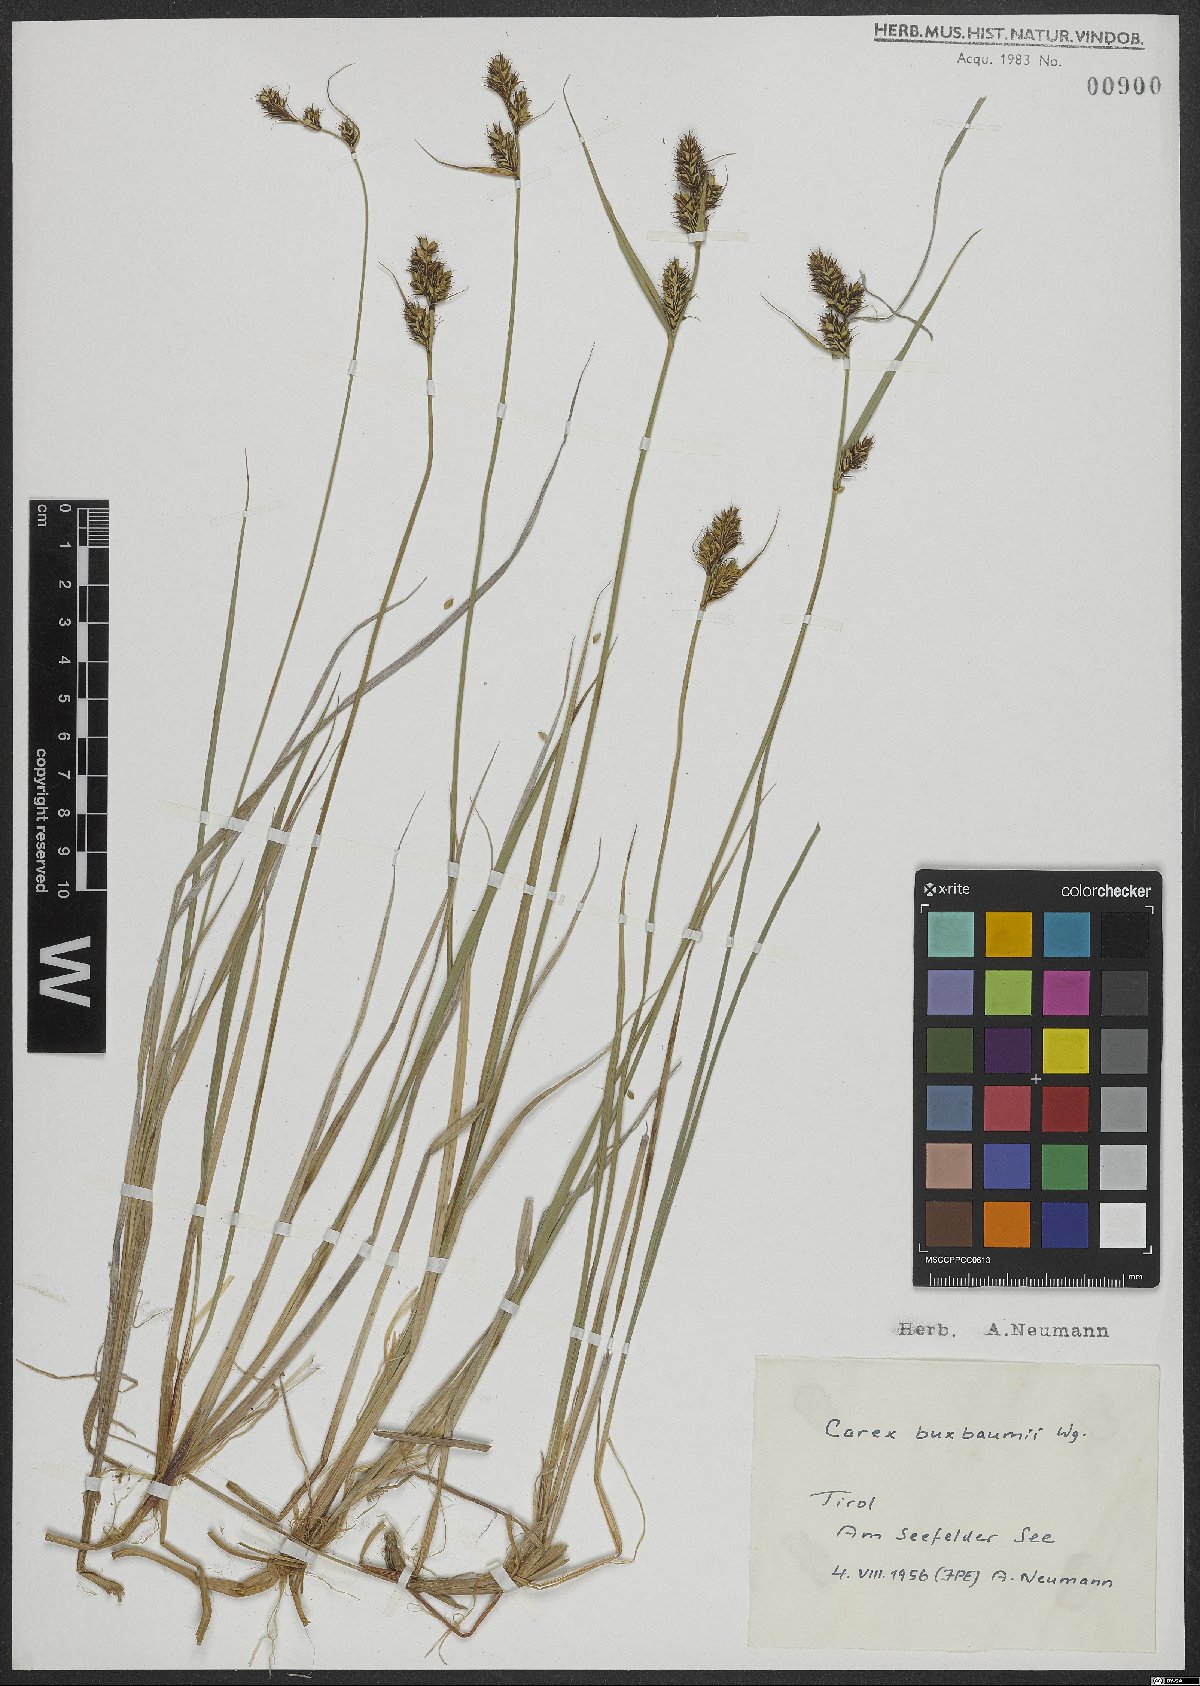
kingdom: Plantae
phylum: Tracheophyta
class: Liliopsida
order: Poales
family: Cyperaceae
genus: Carex
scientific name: Carex buxbaumii
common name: Club sedge
